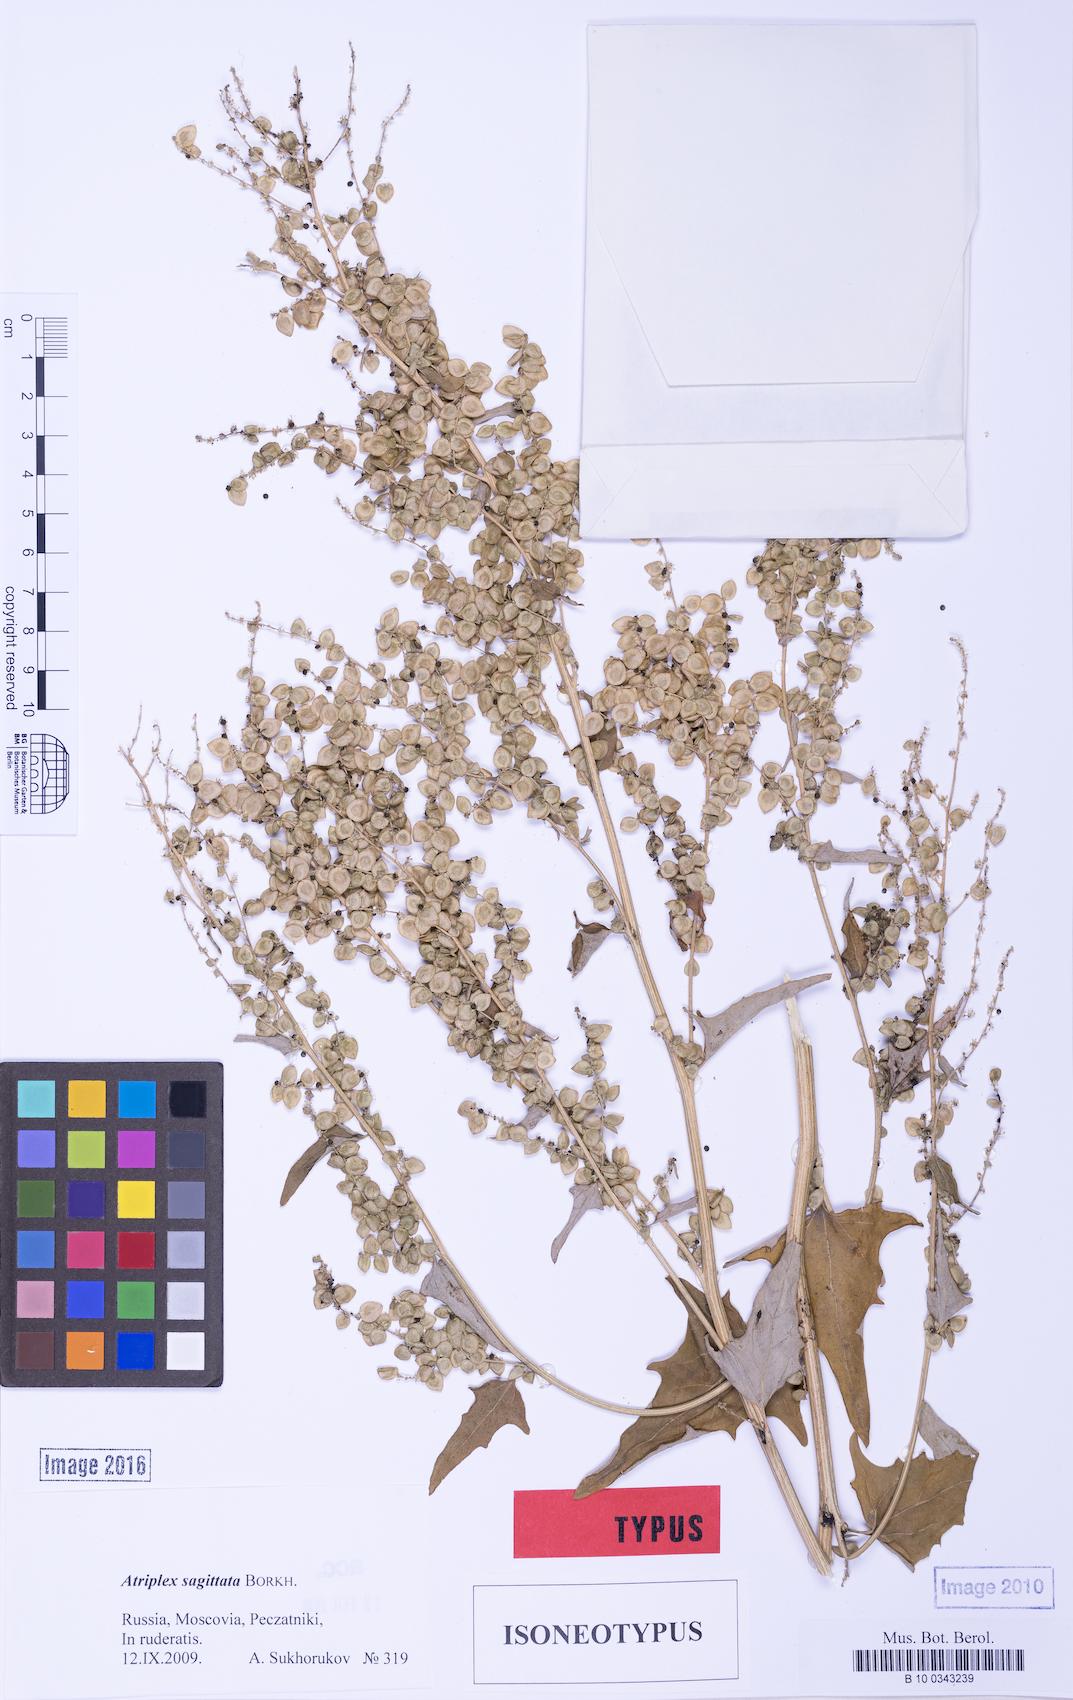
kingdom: Plantae
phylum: Tracheophyta
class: Magnoliopsida
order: Caryophyllales
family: Amaranthaceae
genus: Atriplex
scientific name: Atriplex sagittata
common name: Purple orache
